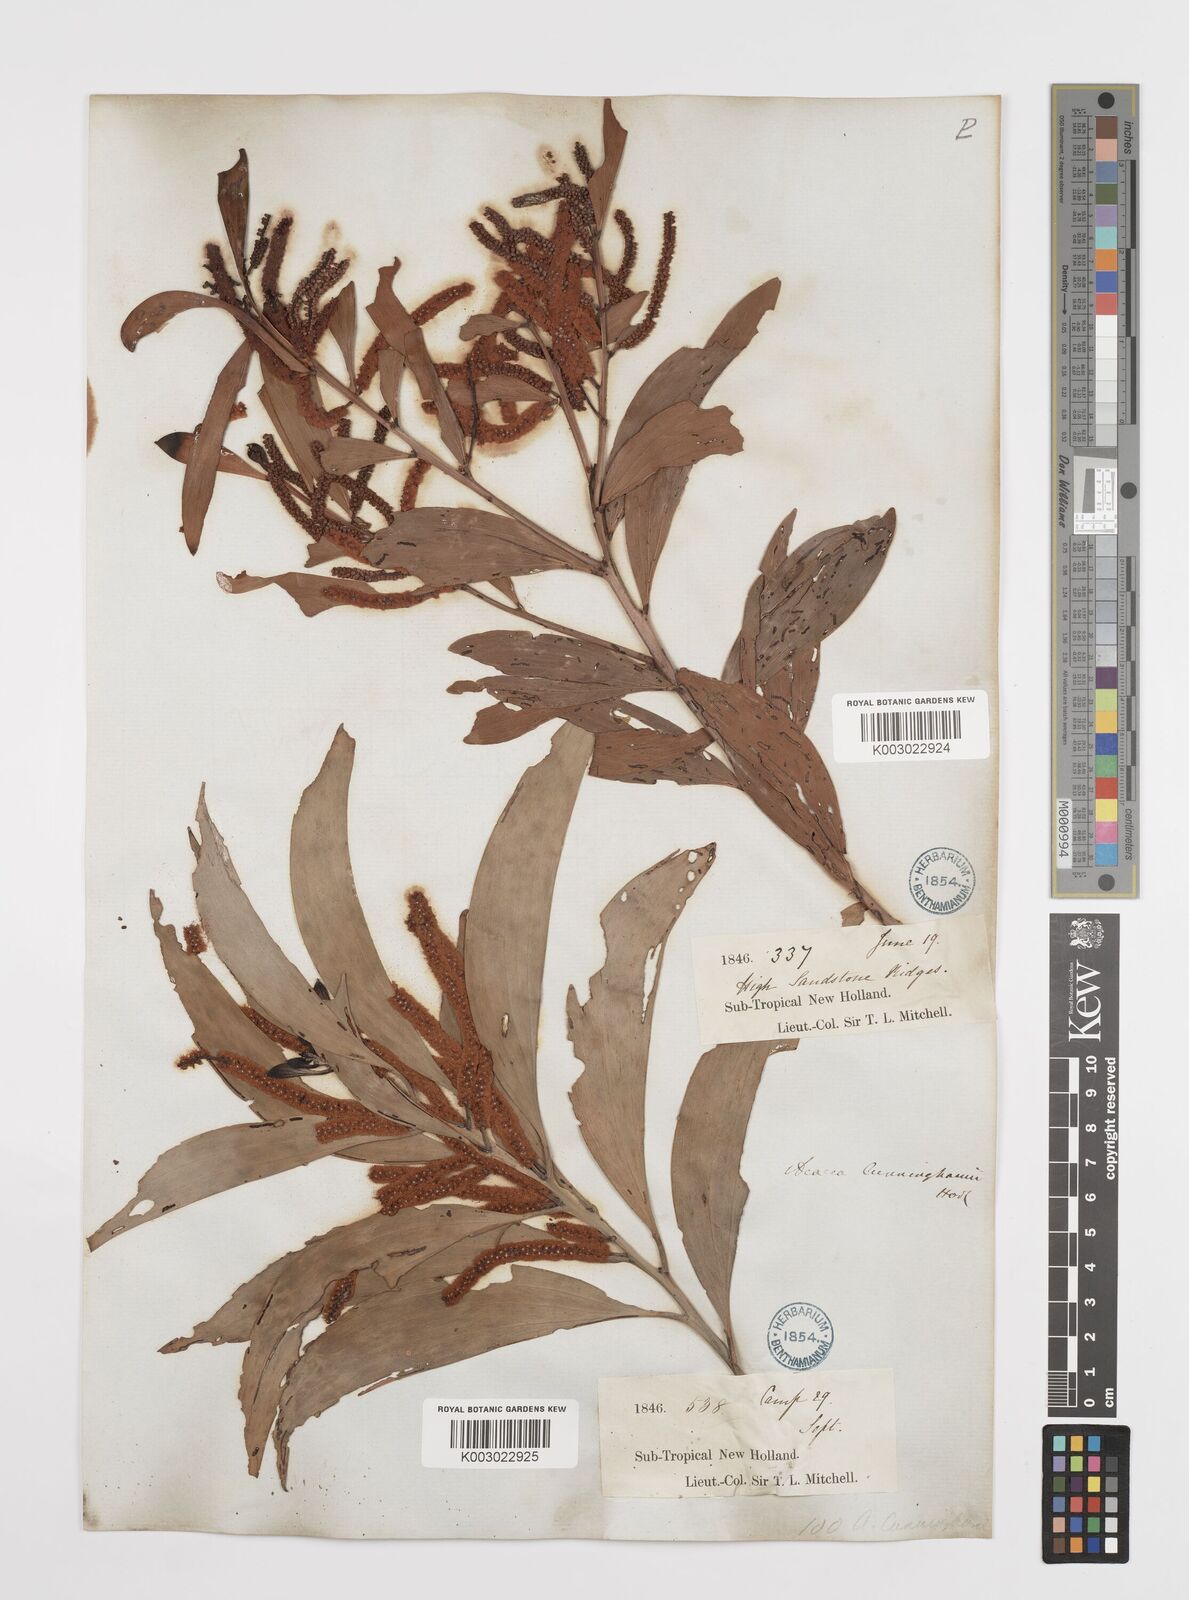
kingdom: Plantae
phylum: Tracheophyta
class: Magnoliopsida
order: Fabales
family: Fabaceae
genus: Acacia
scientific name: Acacia longispicata
